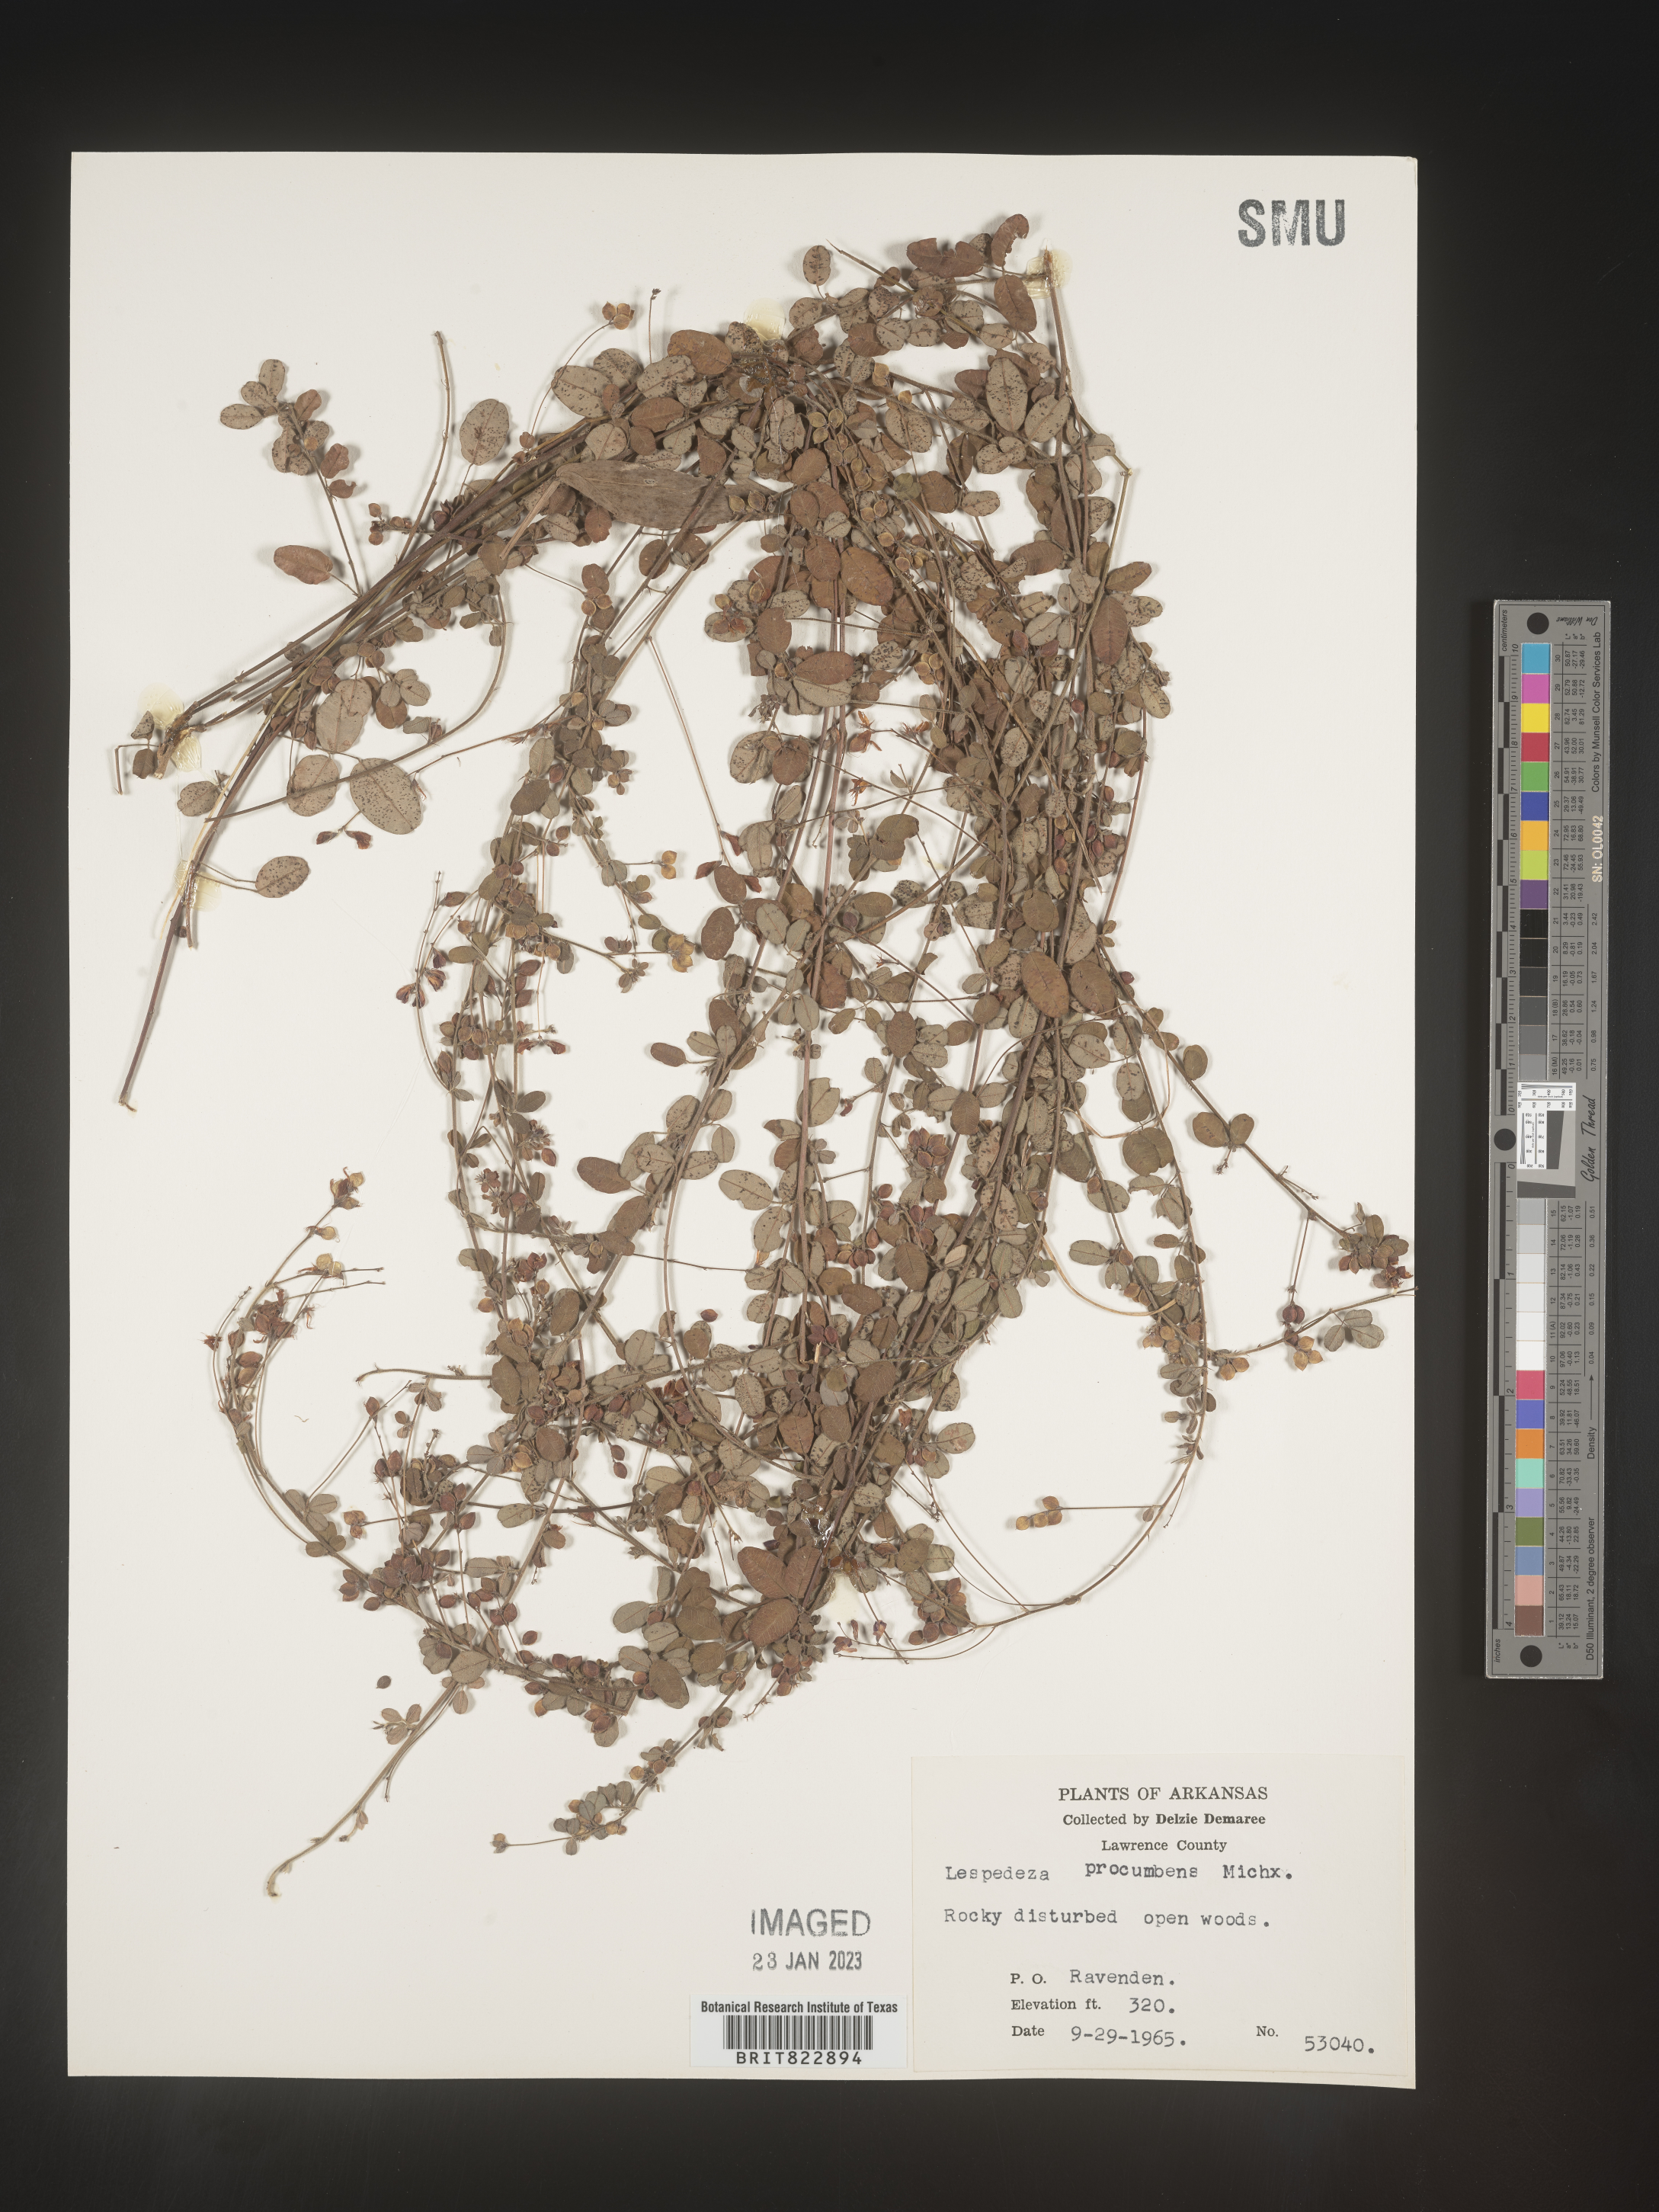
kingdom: Plantae
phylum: Tracheophyta
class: Magnoliopsida
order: Fabales
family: Fabaceae
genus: Lespedeza
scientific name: Lespedeza procumbens
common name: Downy trailing bush-clover
